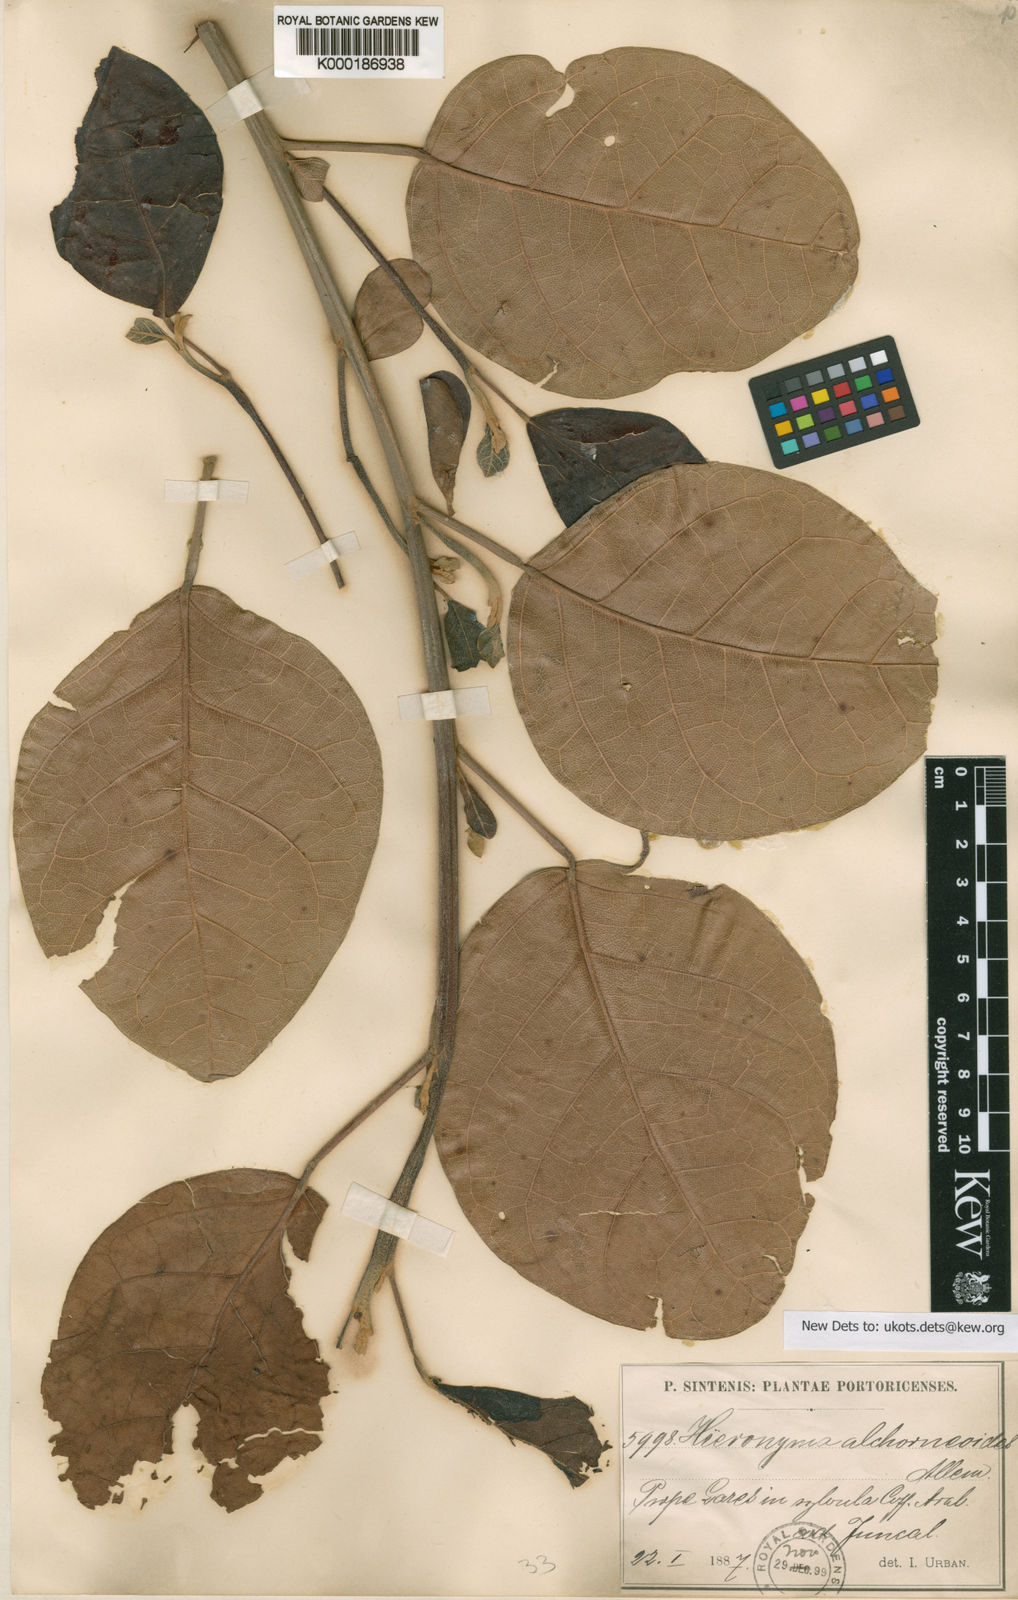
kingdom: Plantae
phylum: Tracheophyta
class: Magnoliopsida
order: Malpighiales
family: Phyllanthaceae
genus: Hieronyma
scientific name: Hieronyma clusioides
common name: Cedro macho
